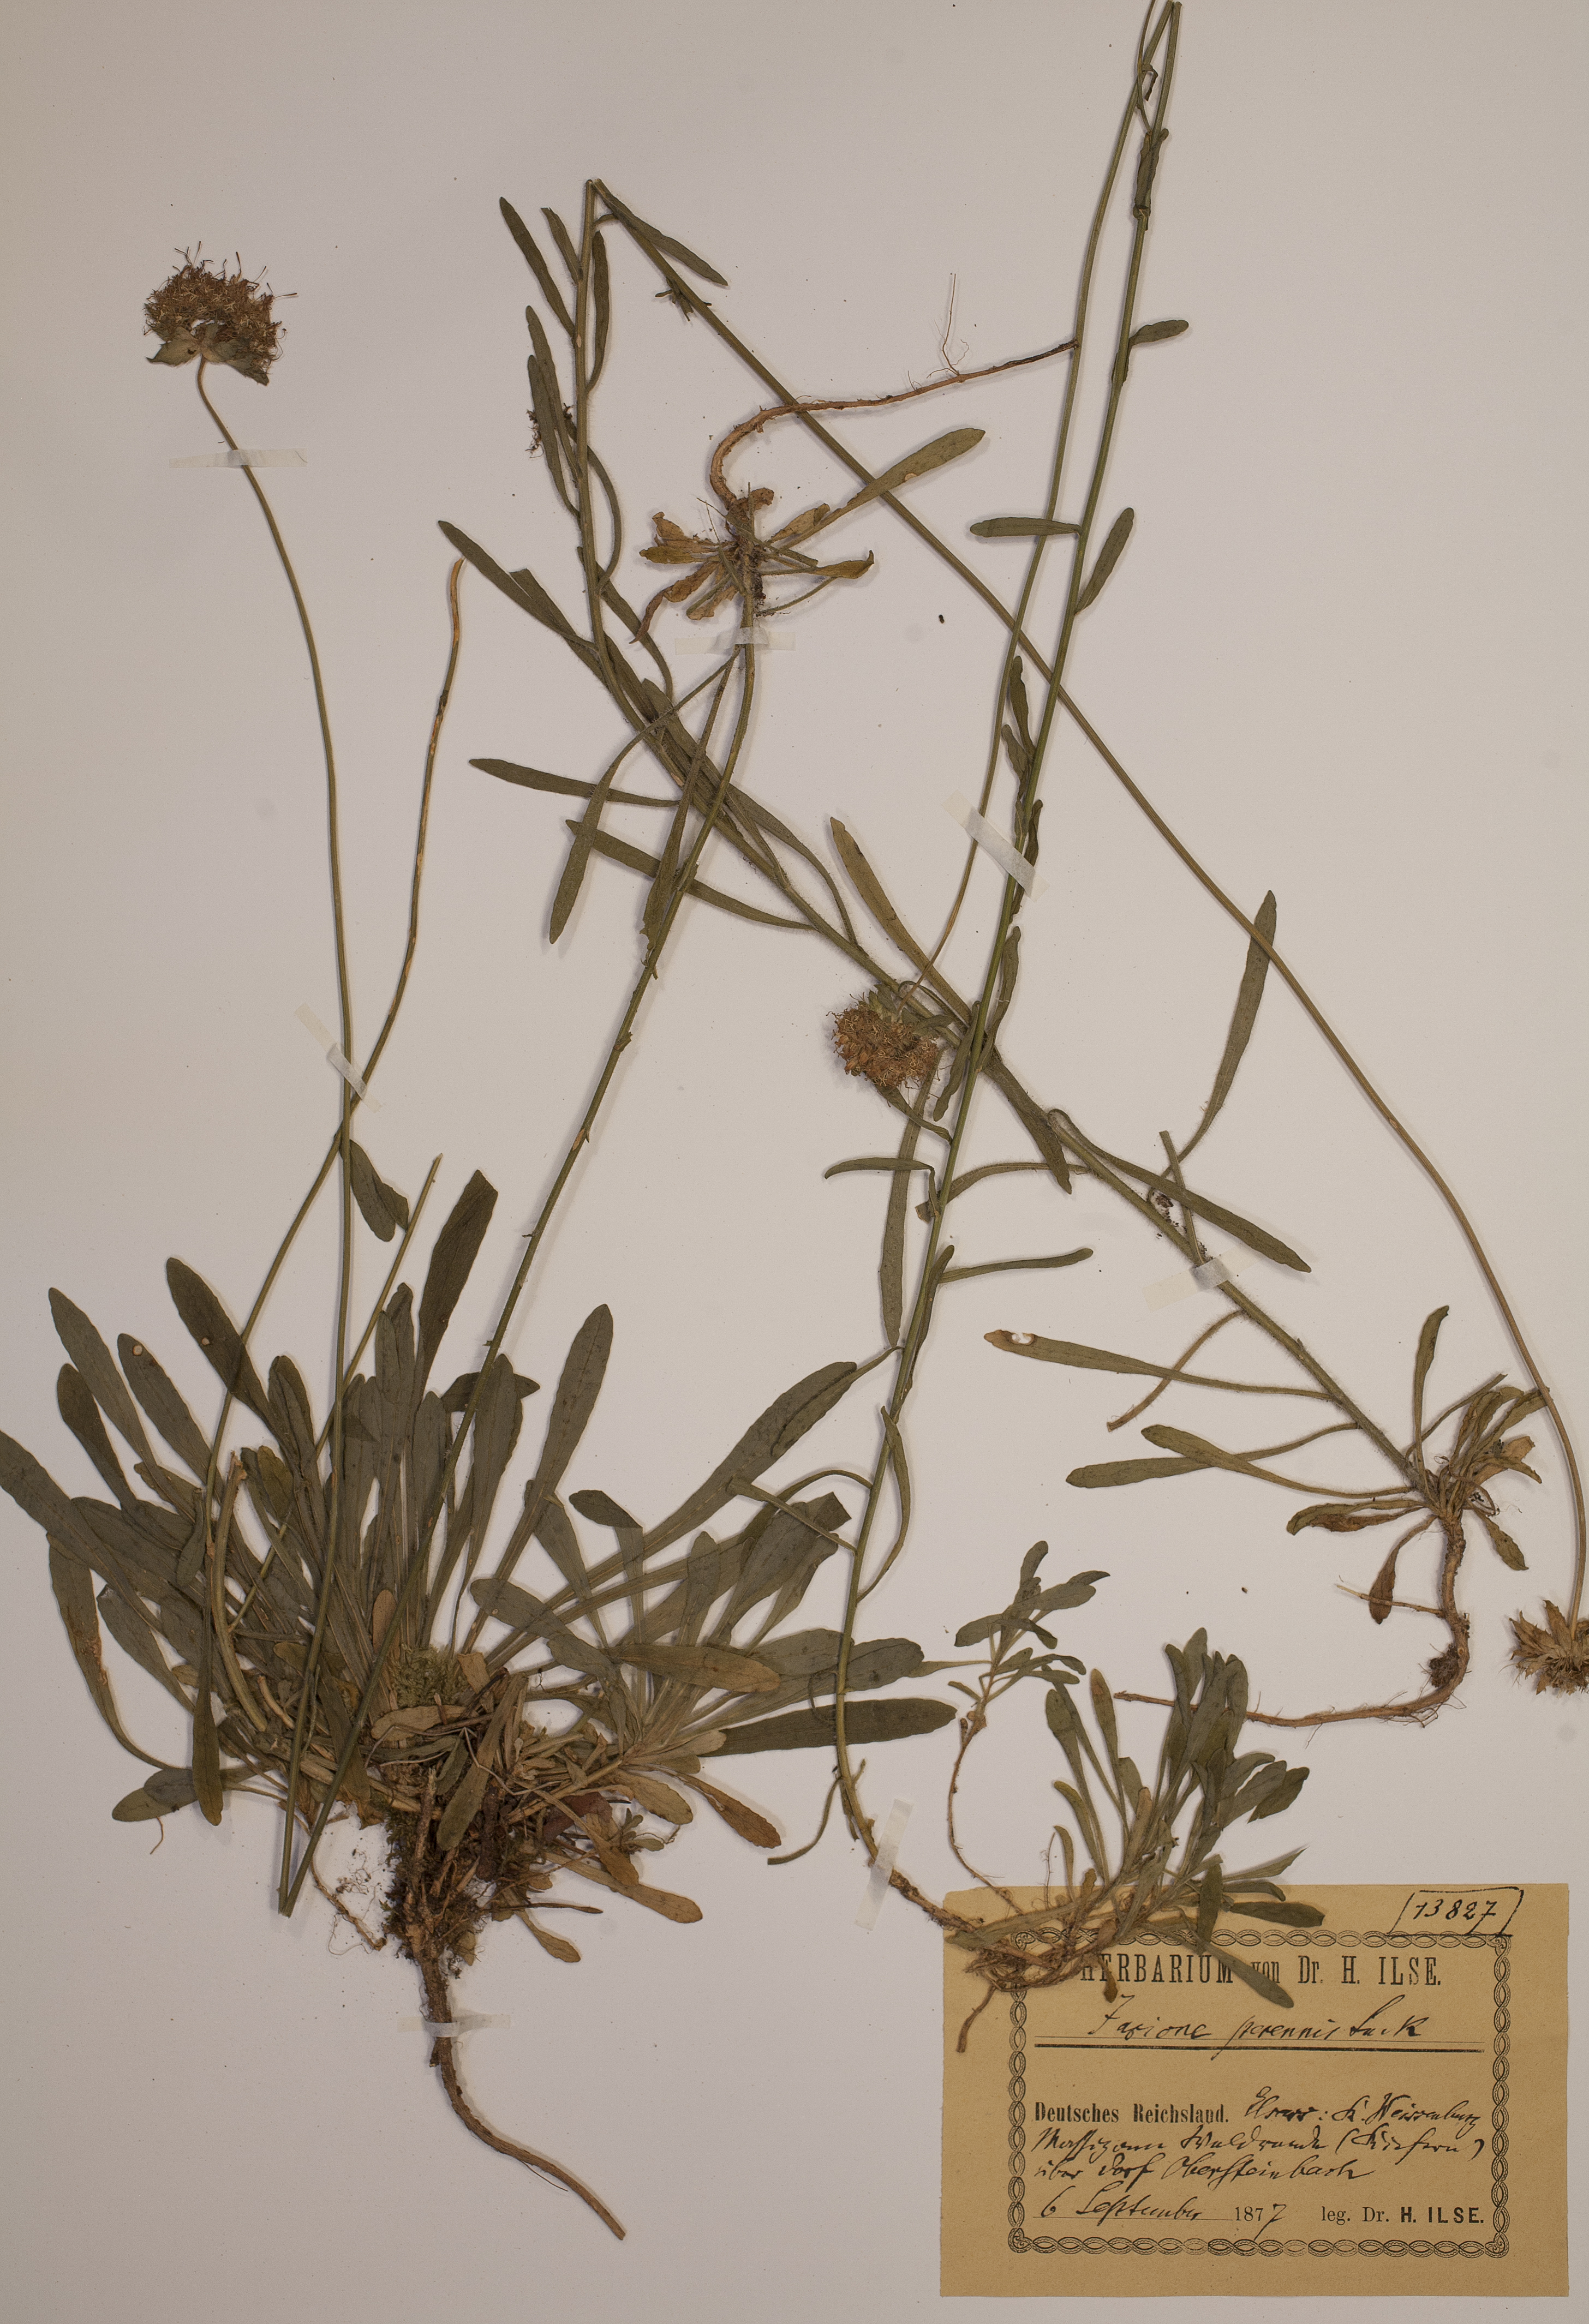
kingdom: Plantae
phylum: Tracheophyta
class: Magnoliopsida
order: Asterales
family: Campanulaceae
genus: Jasione
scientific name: Jasione laevis
